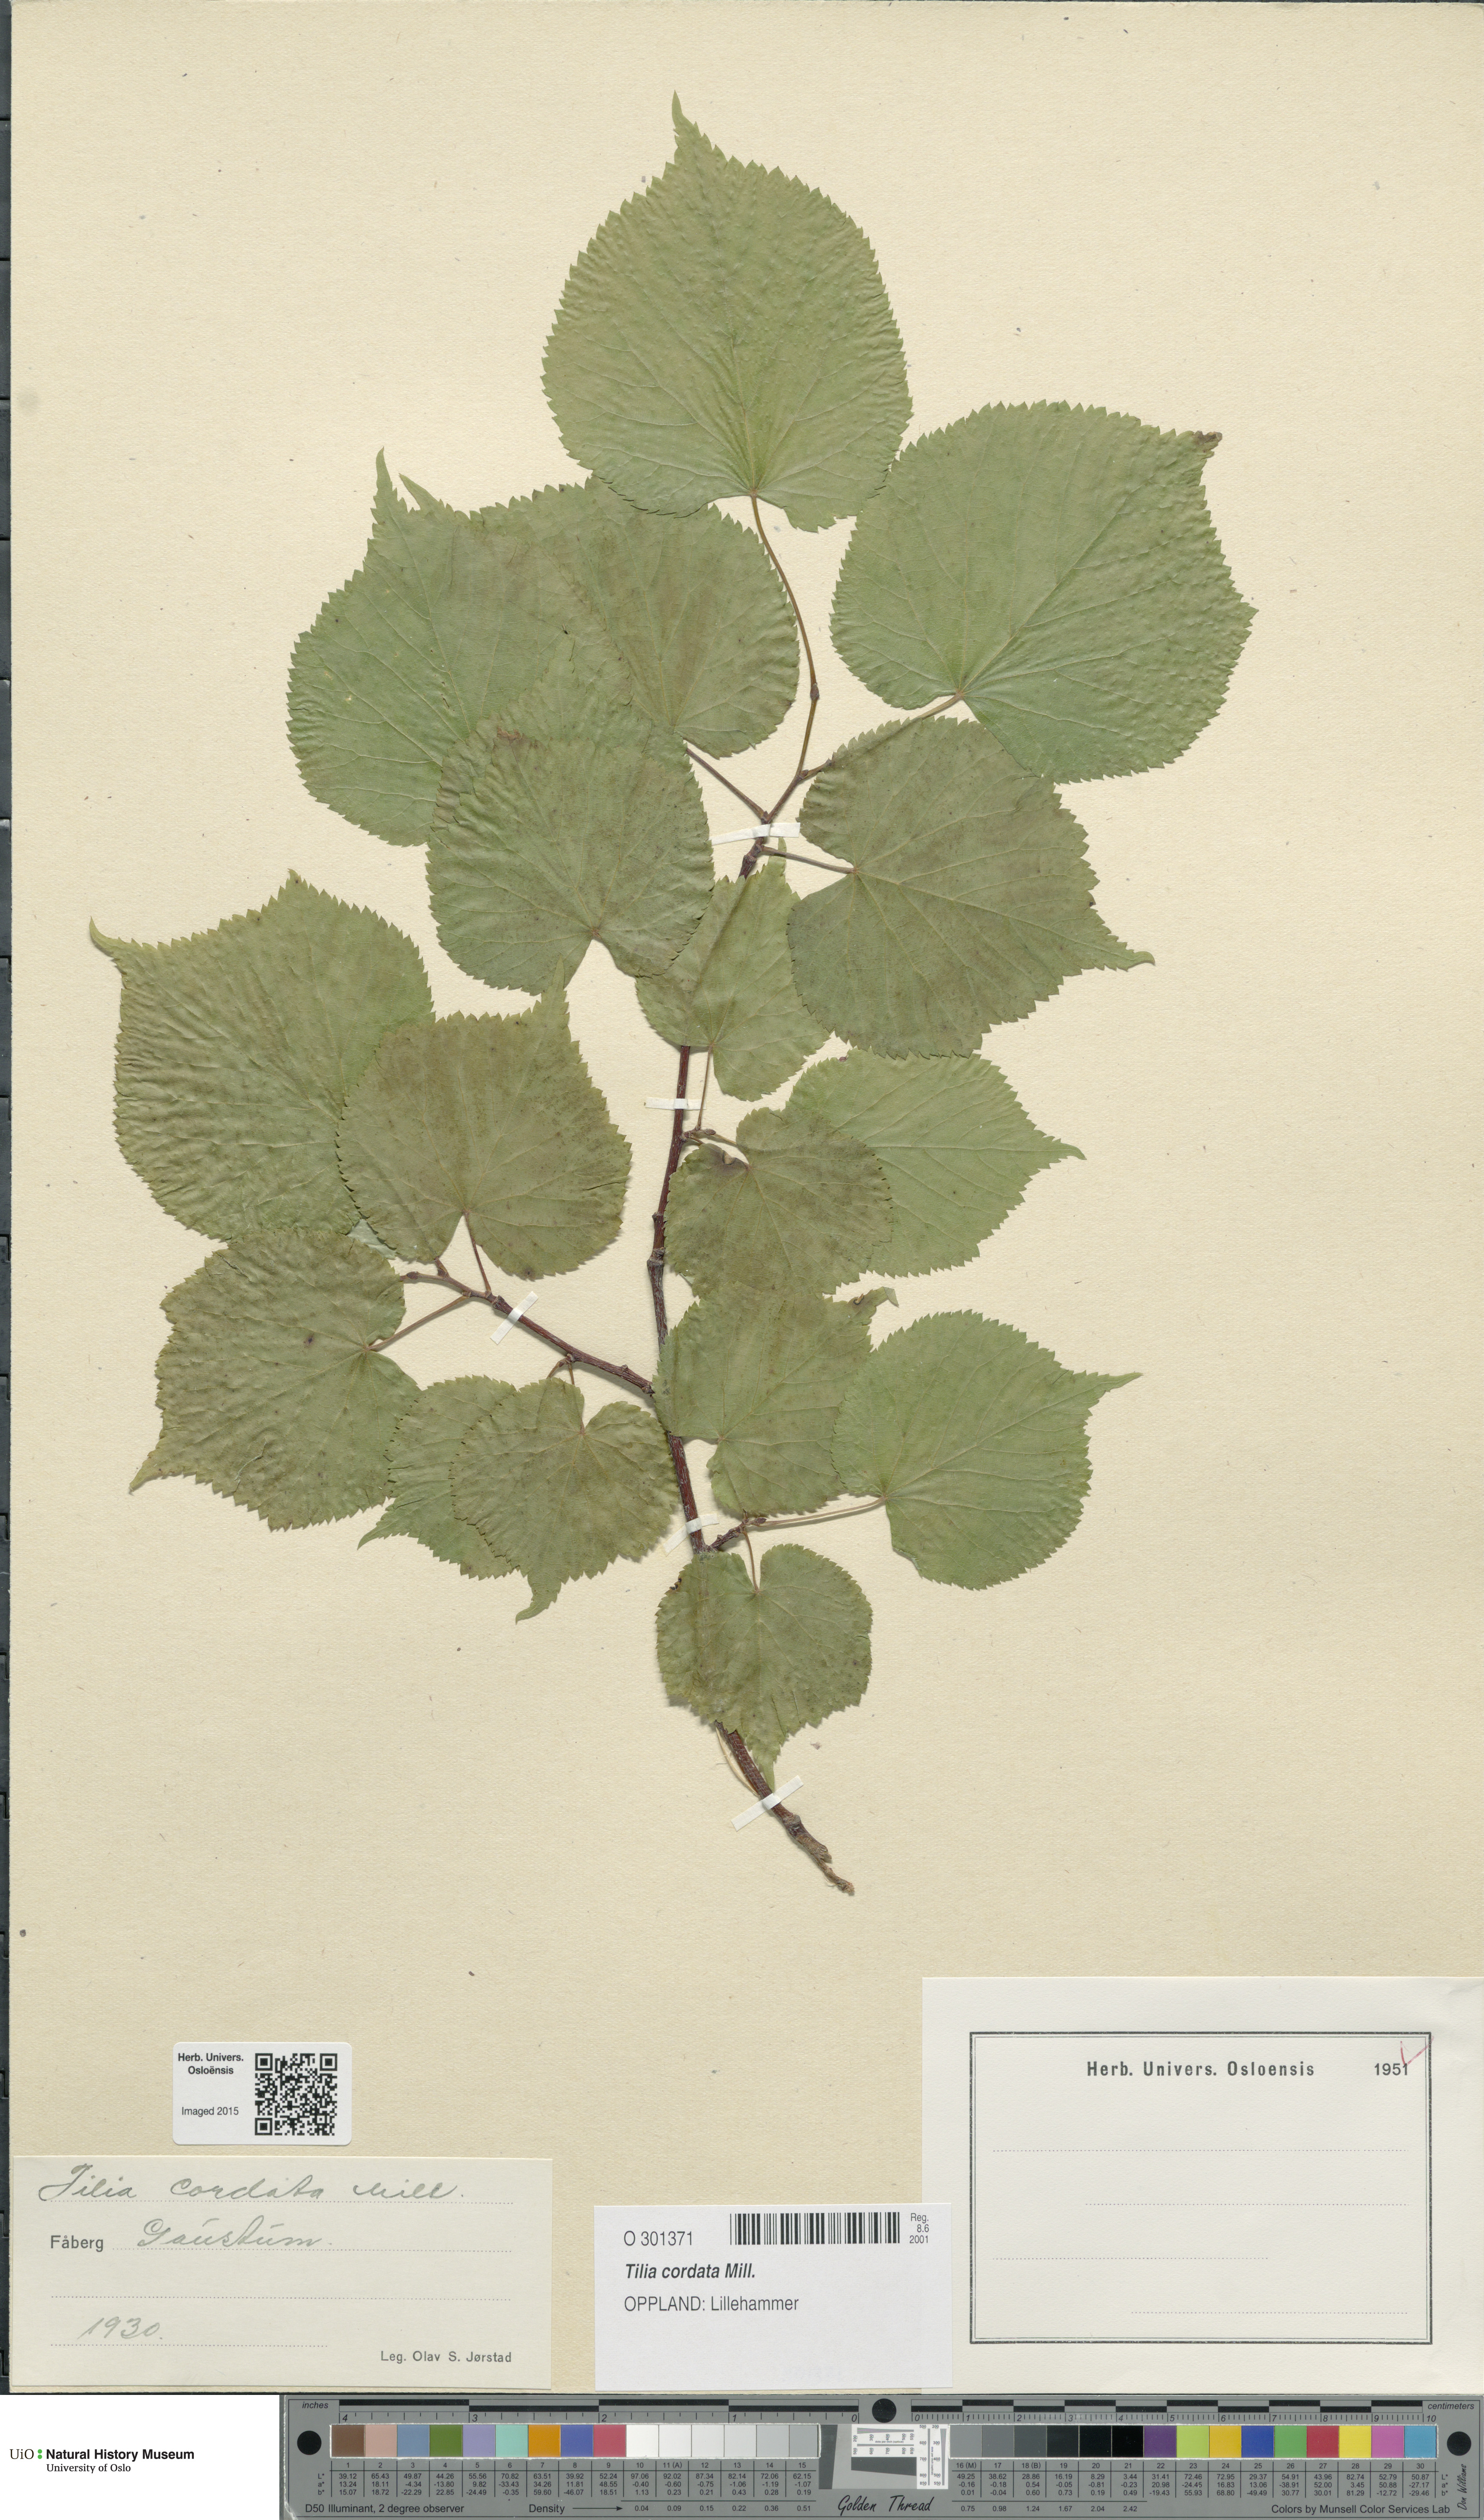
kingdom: Plantae
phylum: Tracheophyta
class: Magnoliopsida
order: Malvales
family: Malvaceae
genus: Tilia
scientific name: Tilia cordata
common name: Small-leaved lime
